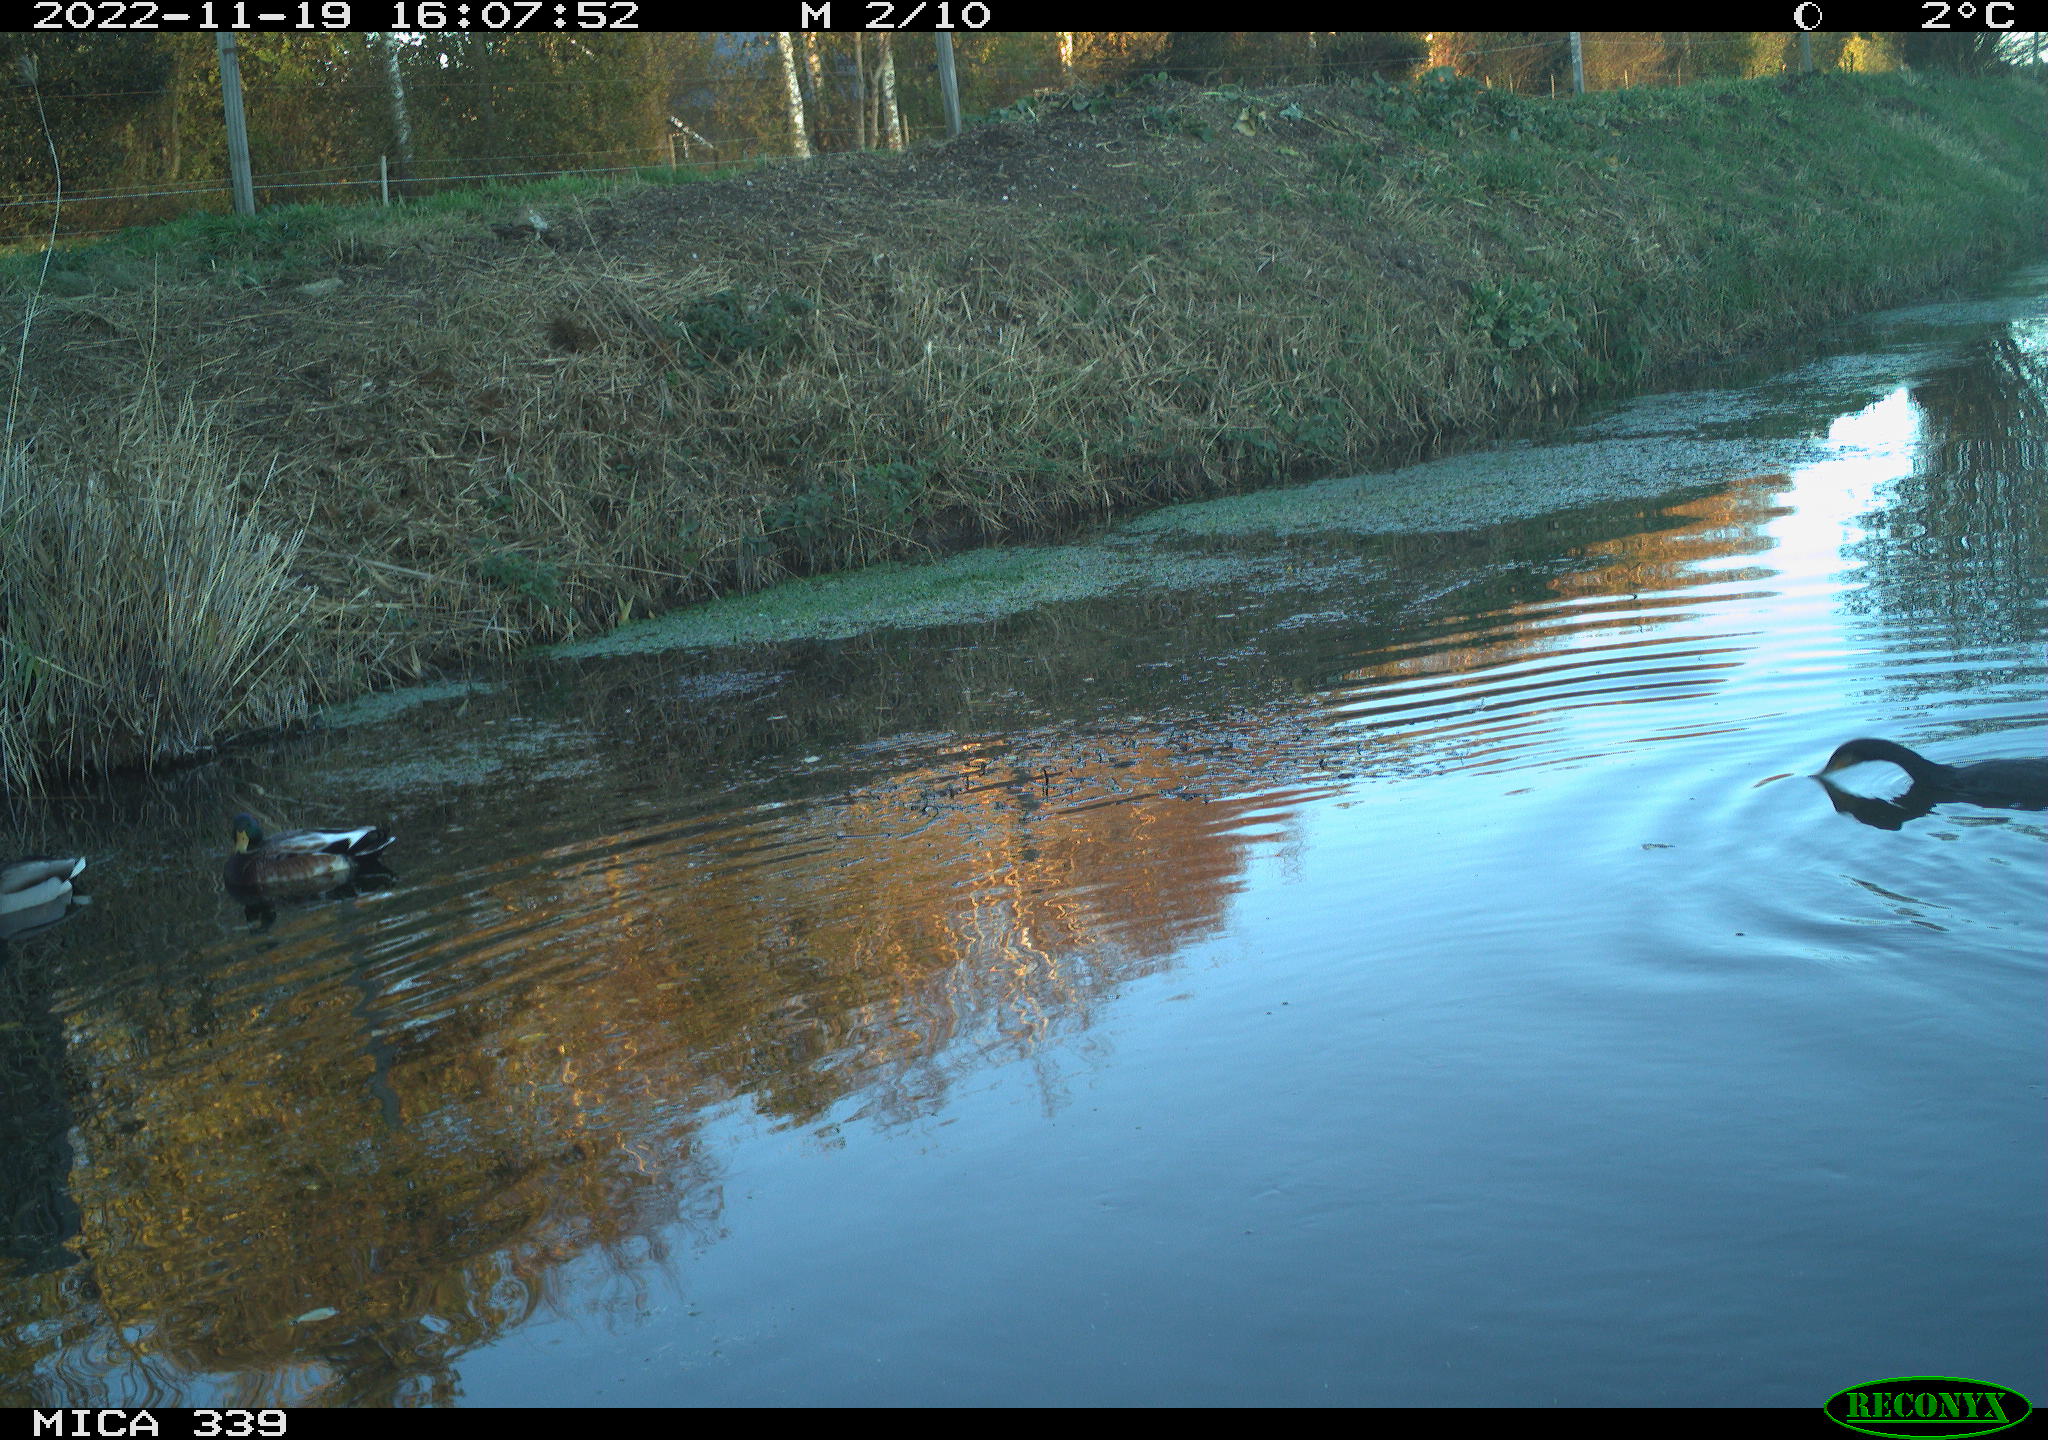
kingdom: Animalia
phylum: Chordata
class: Aves
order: Anseriformes
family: Anatidae
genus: Anas
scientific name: Anas platyrhynchos
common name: Mallard
